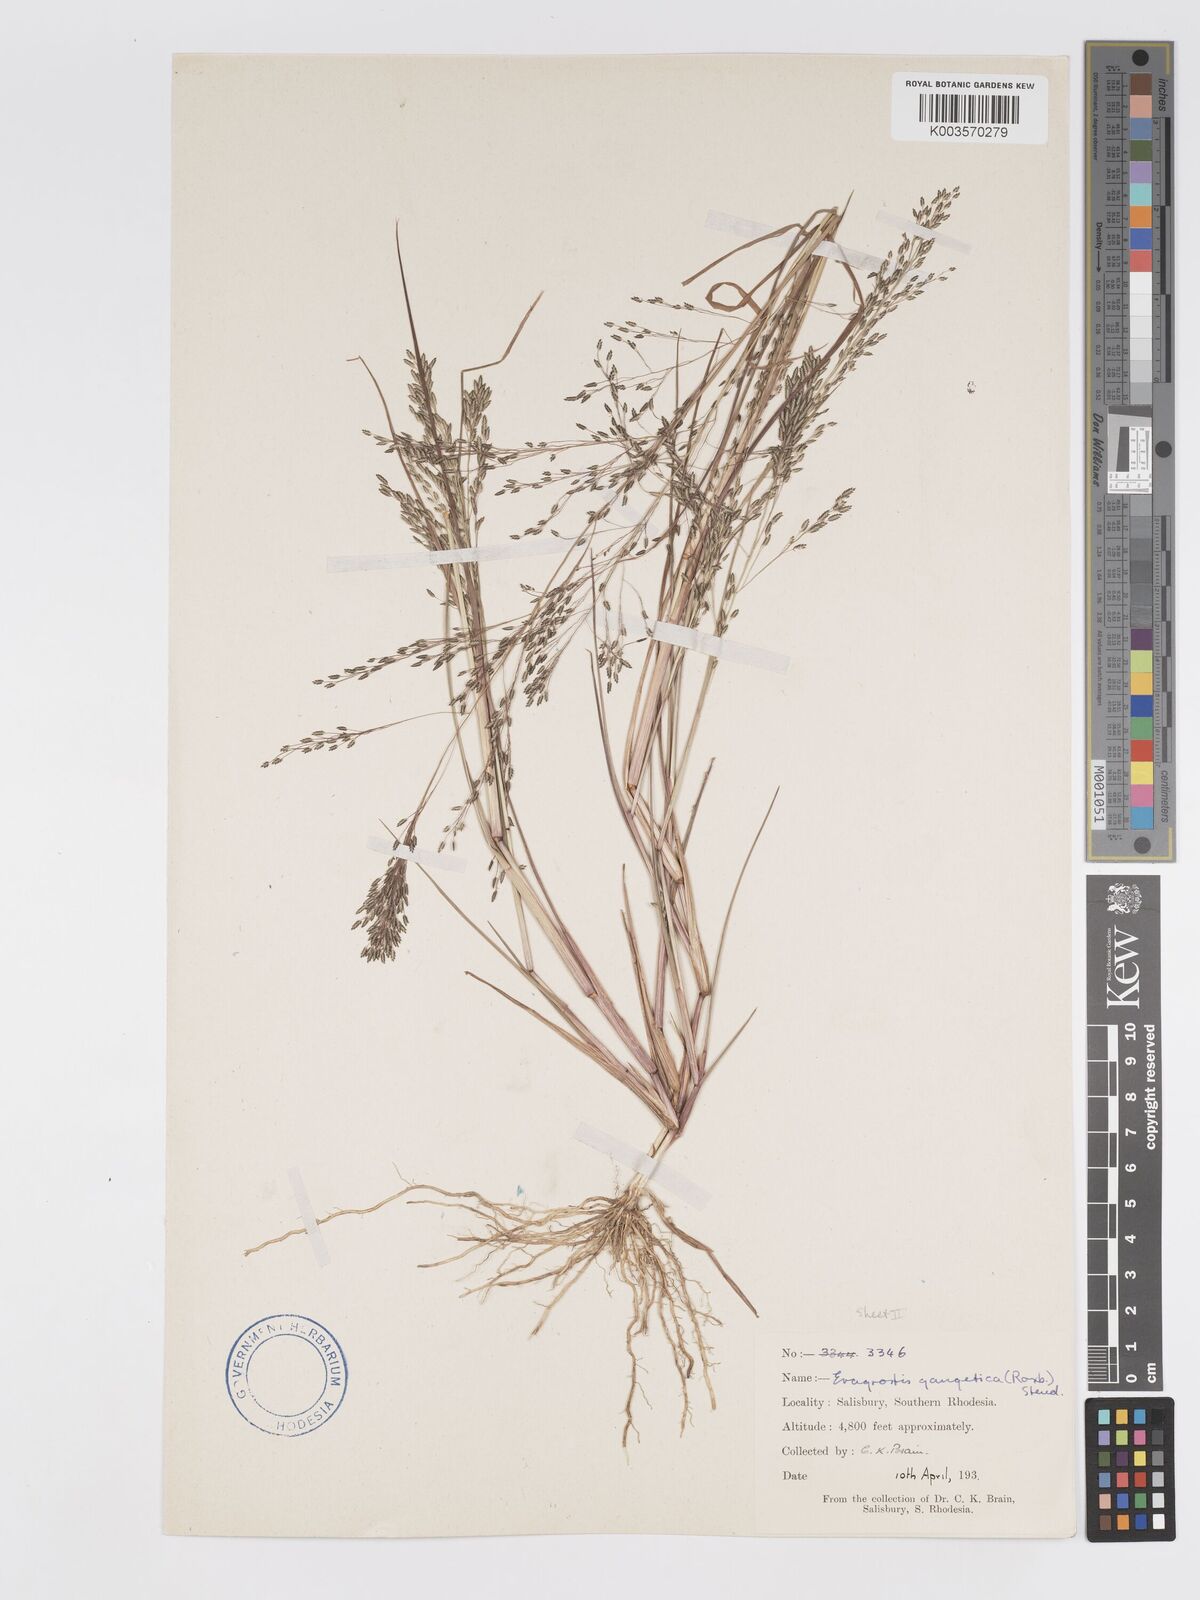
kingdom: Plantae
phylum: Tracheophyta
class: Liliopsida
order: Poales
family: Poaceae
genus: Eragrostis
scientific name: Eragrostis gangetica
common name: Slimflower lovegrass
